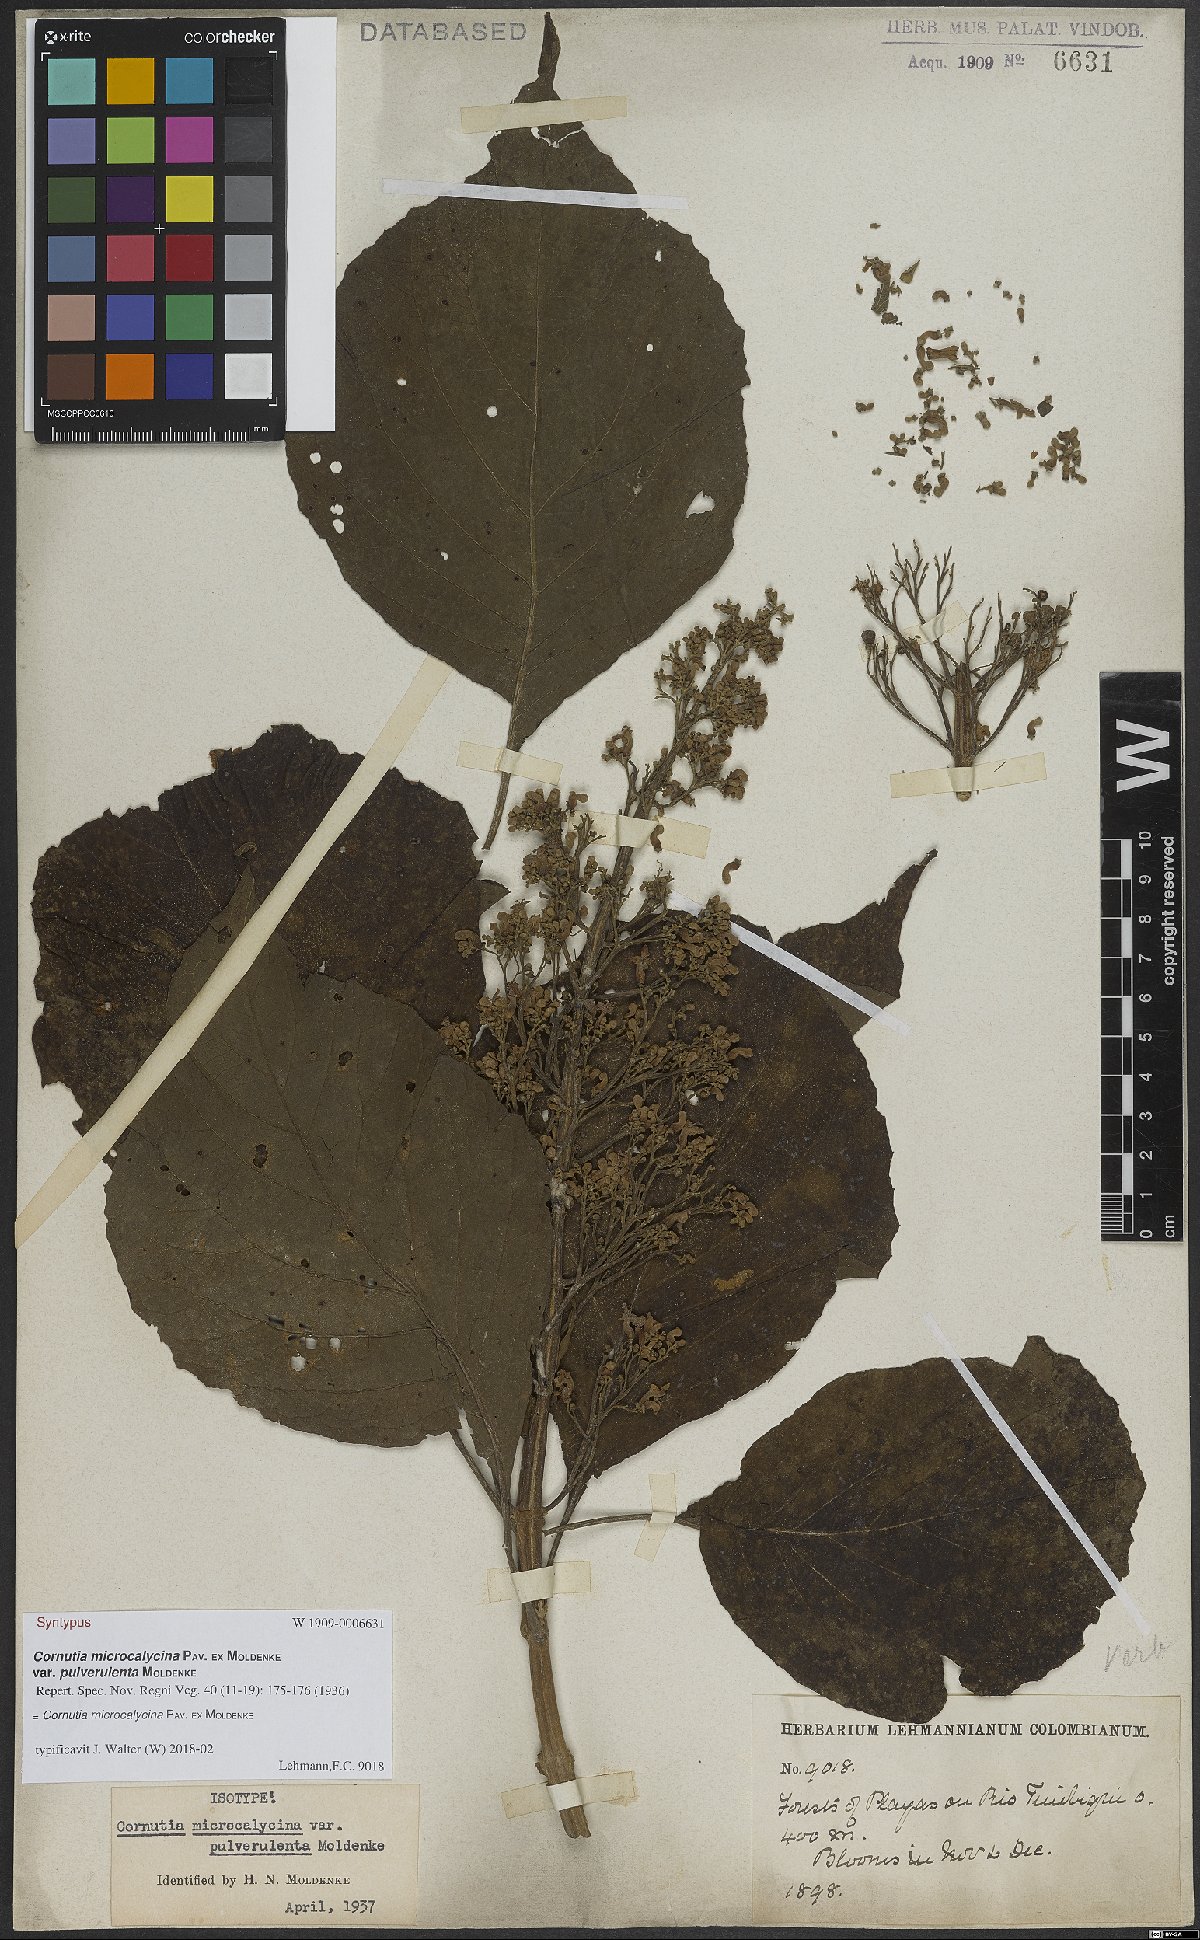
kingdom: Plantae
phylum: Tracheophyta
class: Magnoliopsida
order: Lamiales
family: Lamiaceae
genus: Cornutia
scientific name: Cornutia pyramidata
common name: Azulejo
